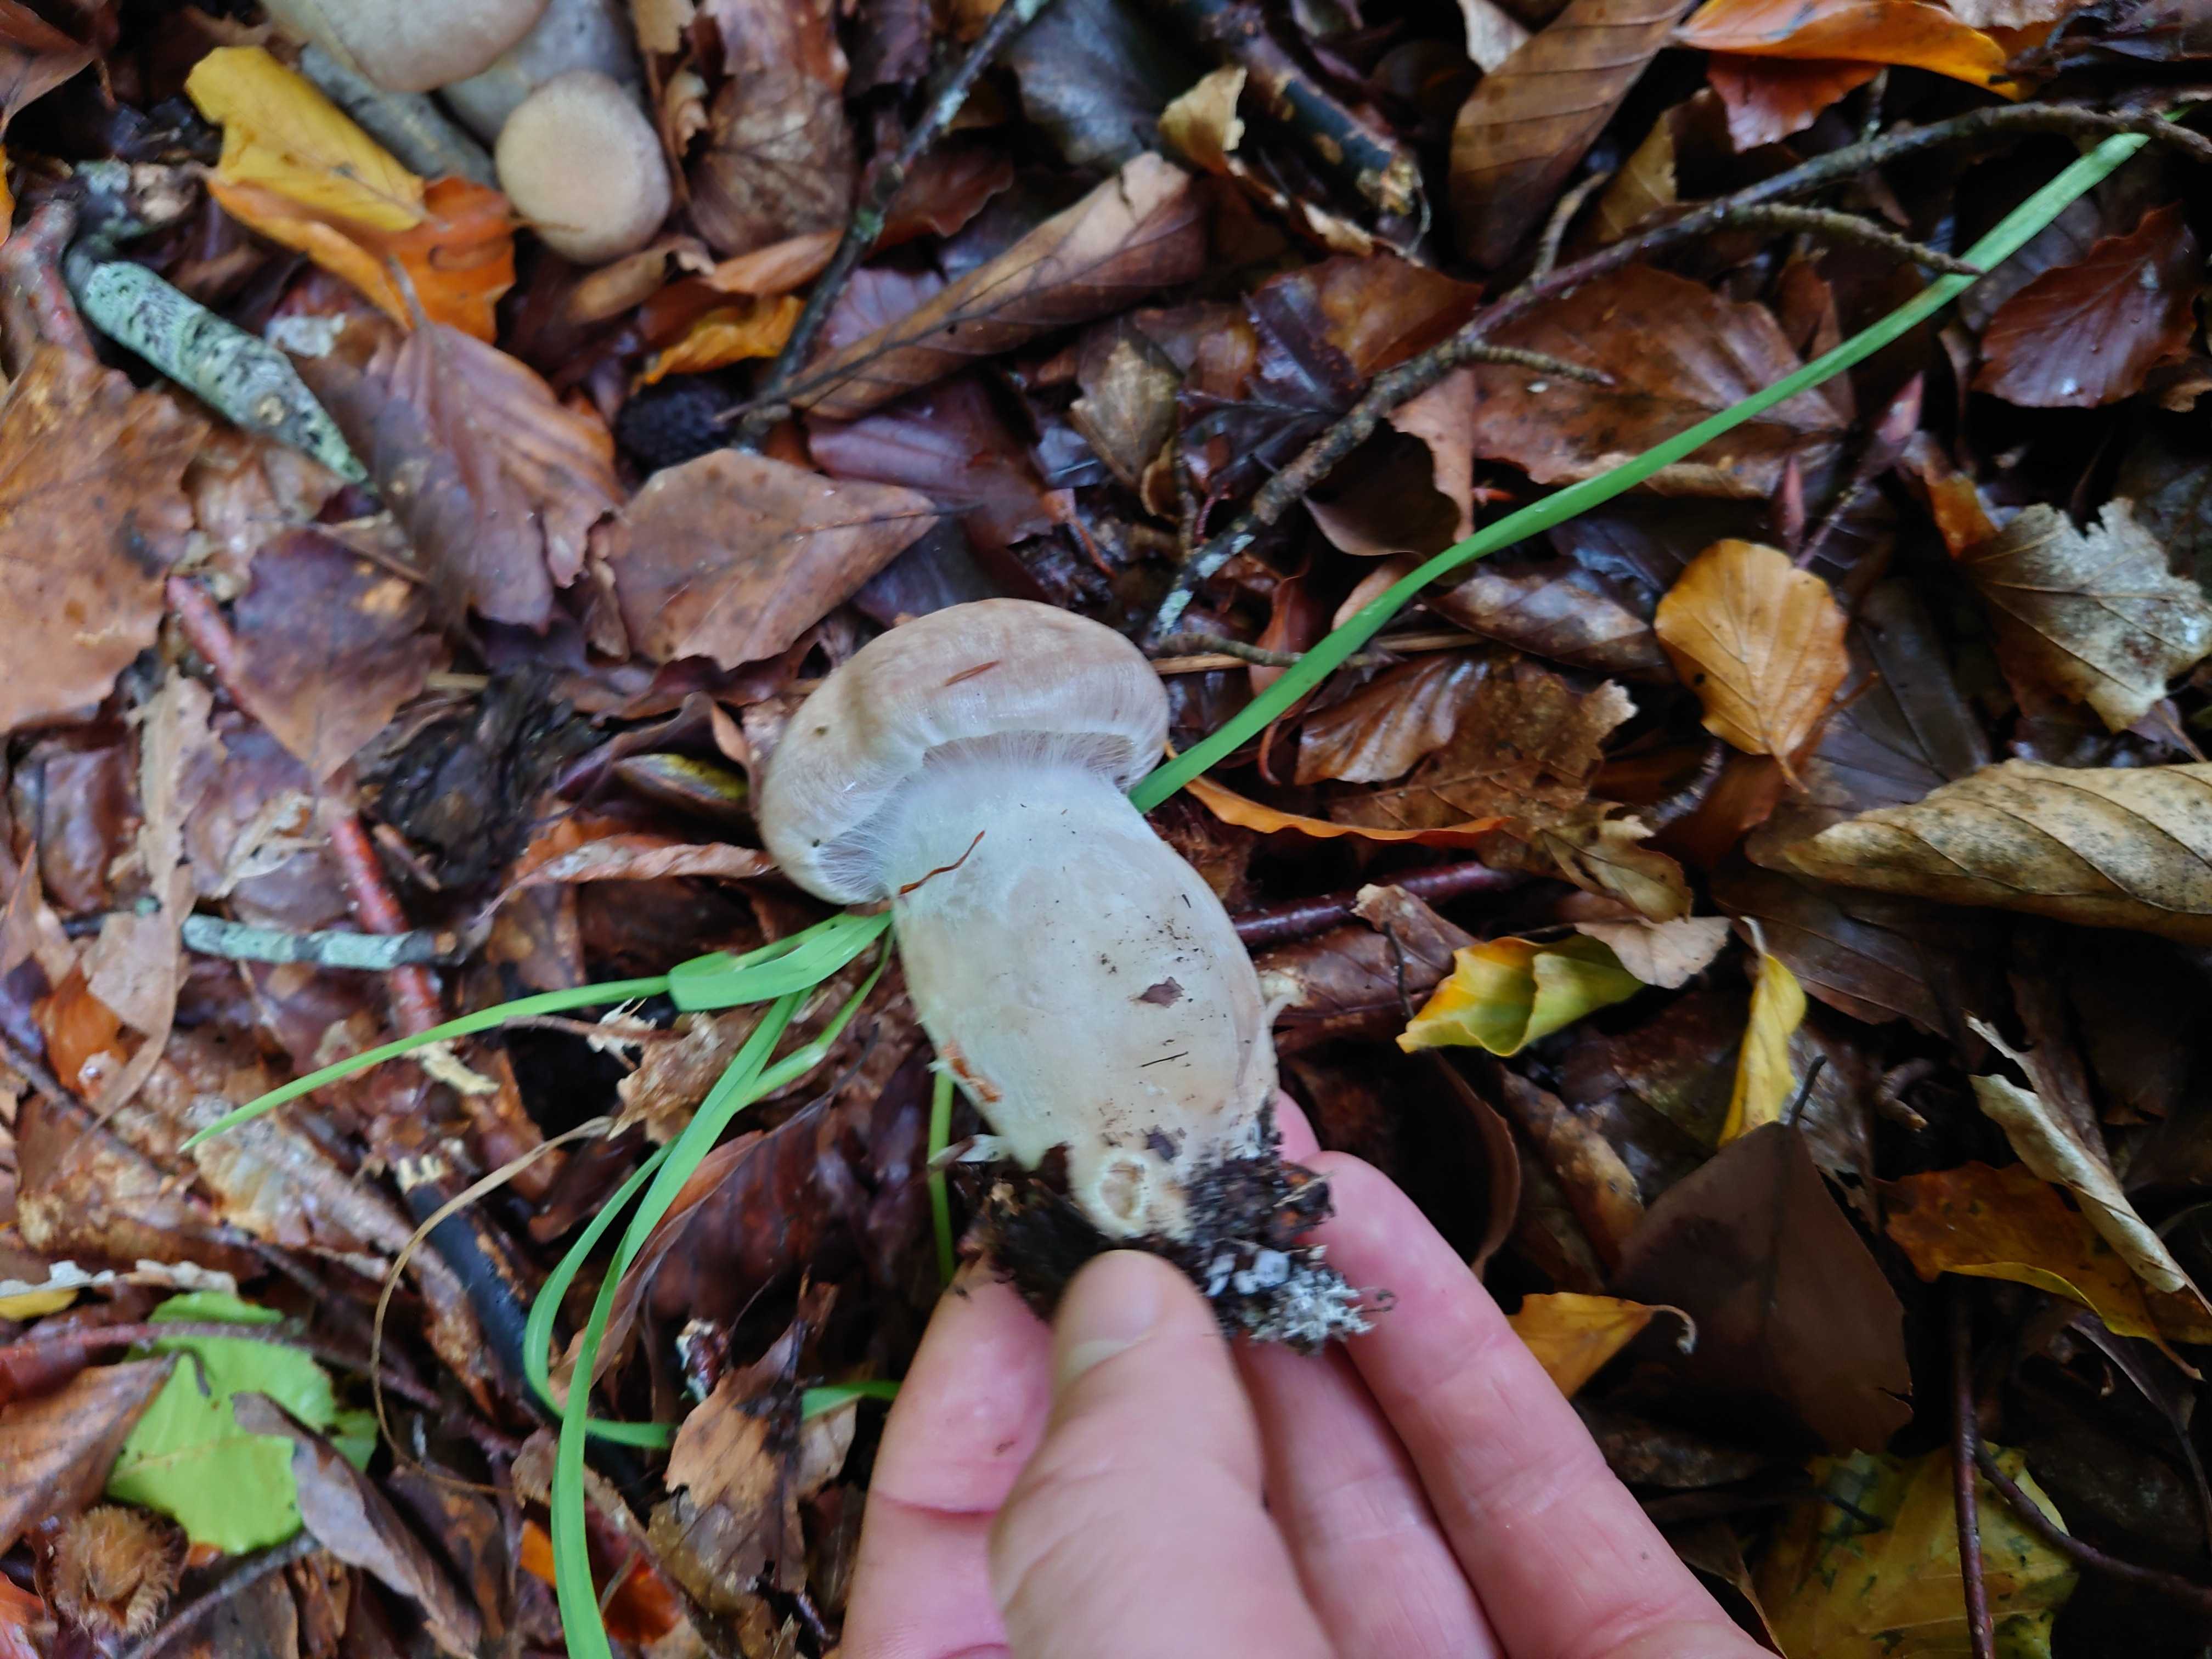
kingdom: Fungi
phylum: Basidiomycota
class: Agaricomycetes
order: Agaricales
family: Cortinariaceae
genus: Cortinarius
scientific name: Cortinarius
